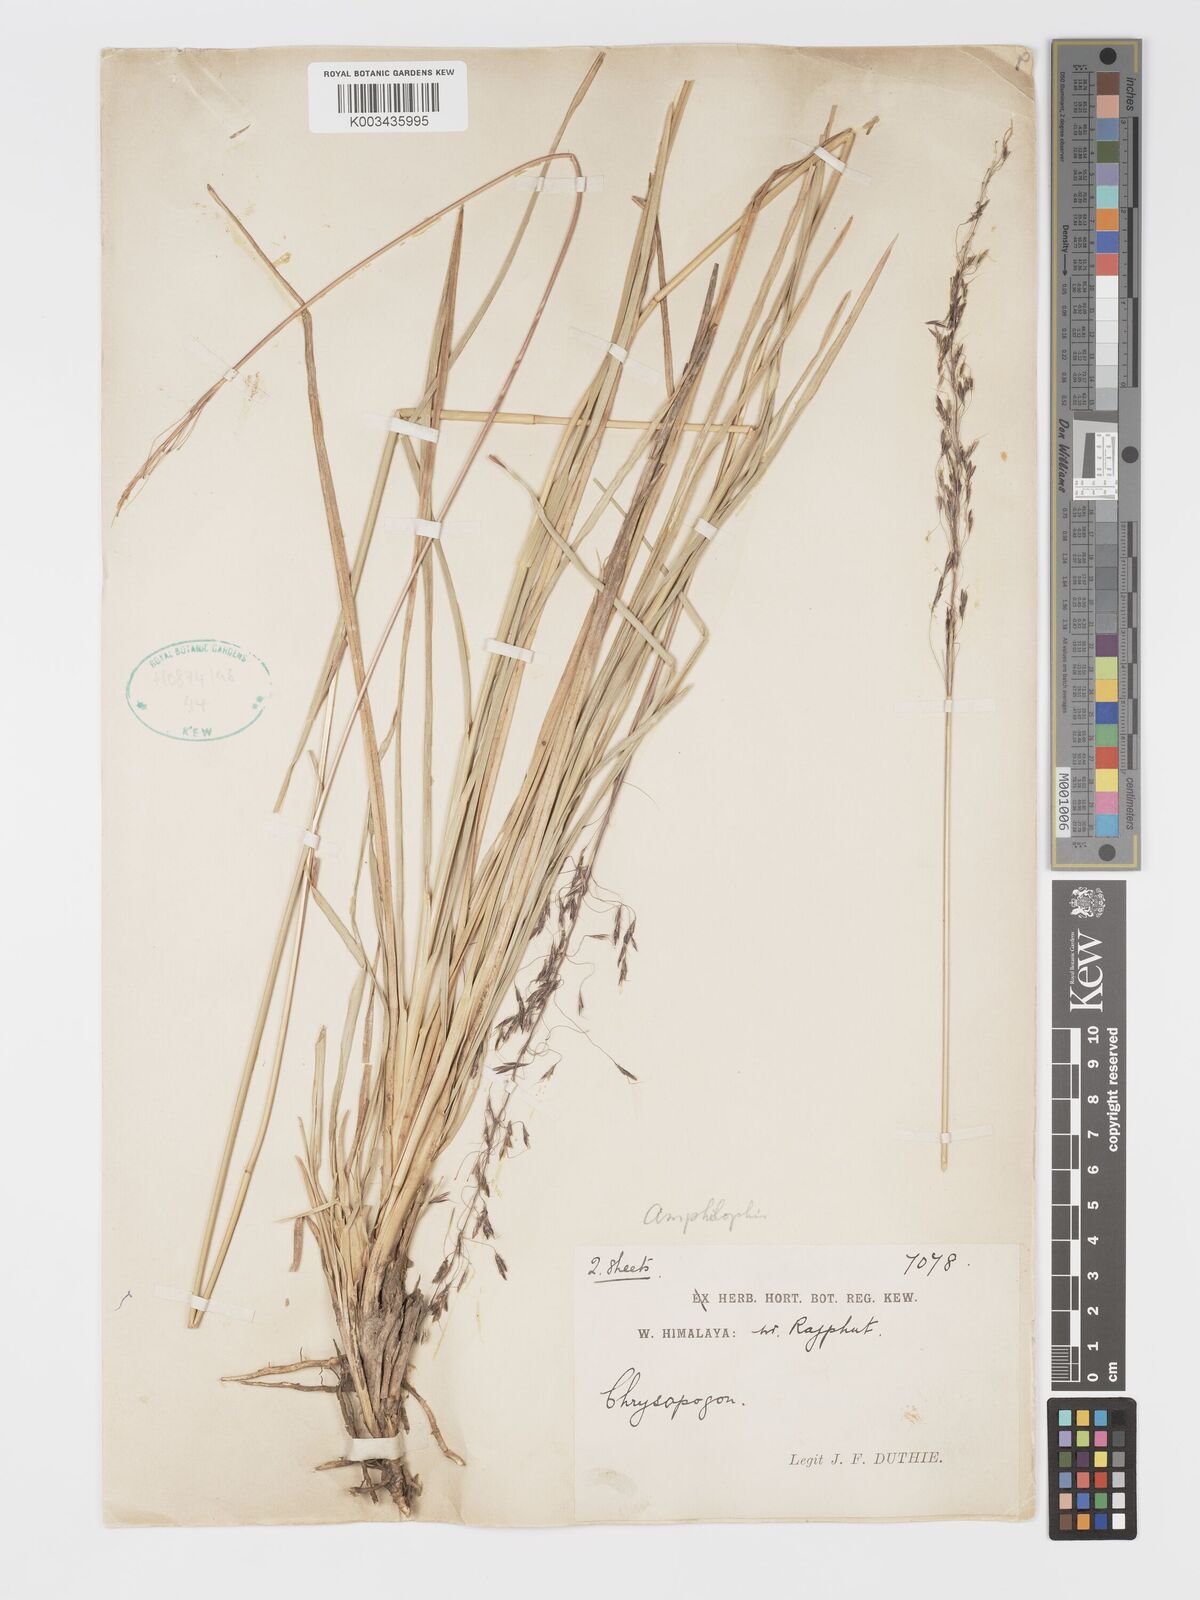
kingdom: Plantae
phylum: Tracheophyta
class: Liliopsida
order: Poales
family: Poaceae
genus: Chrysopogon
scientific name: Chrysopogon gryllus
